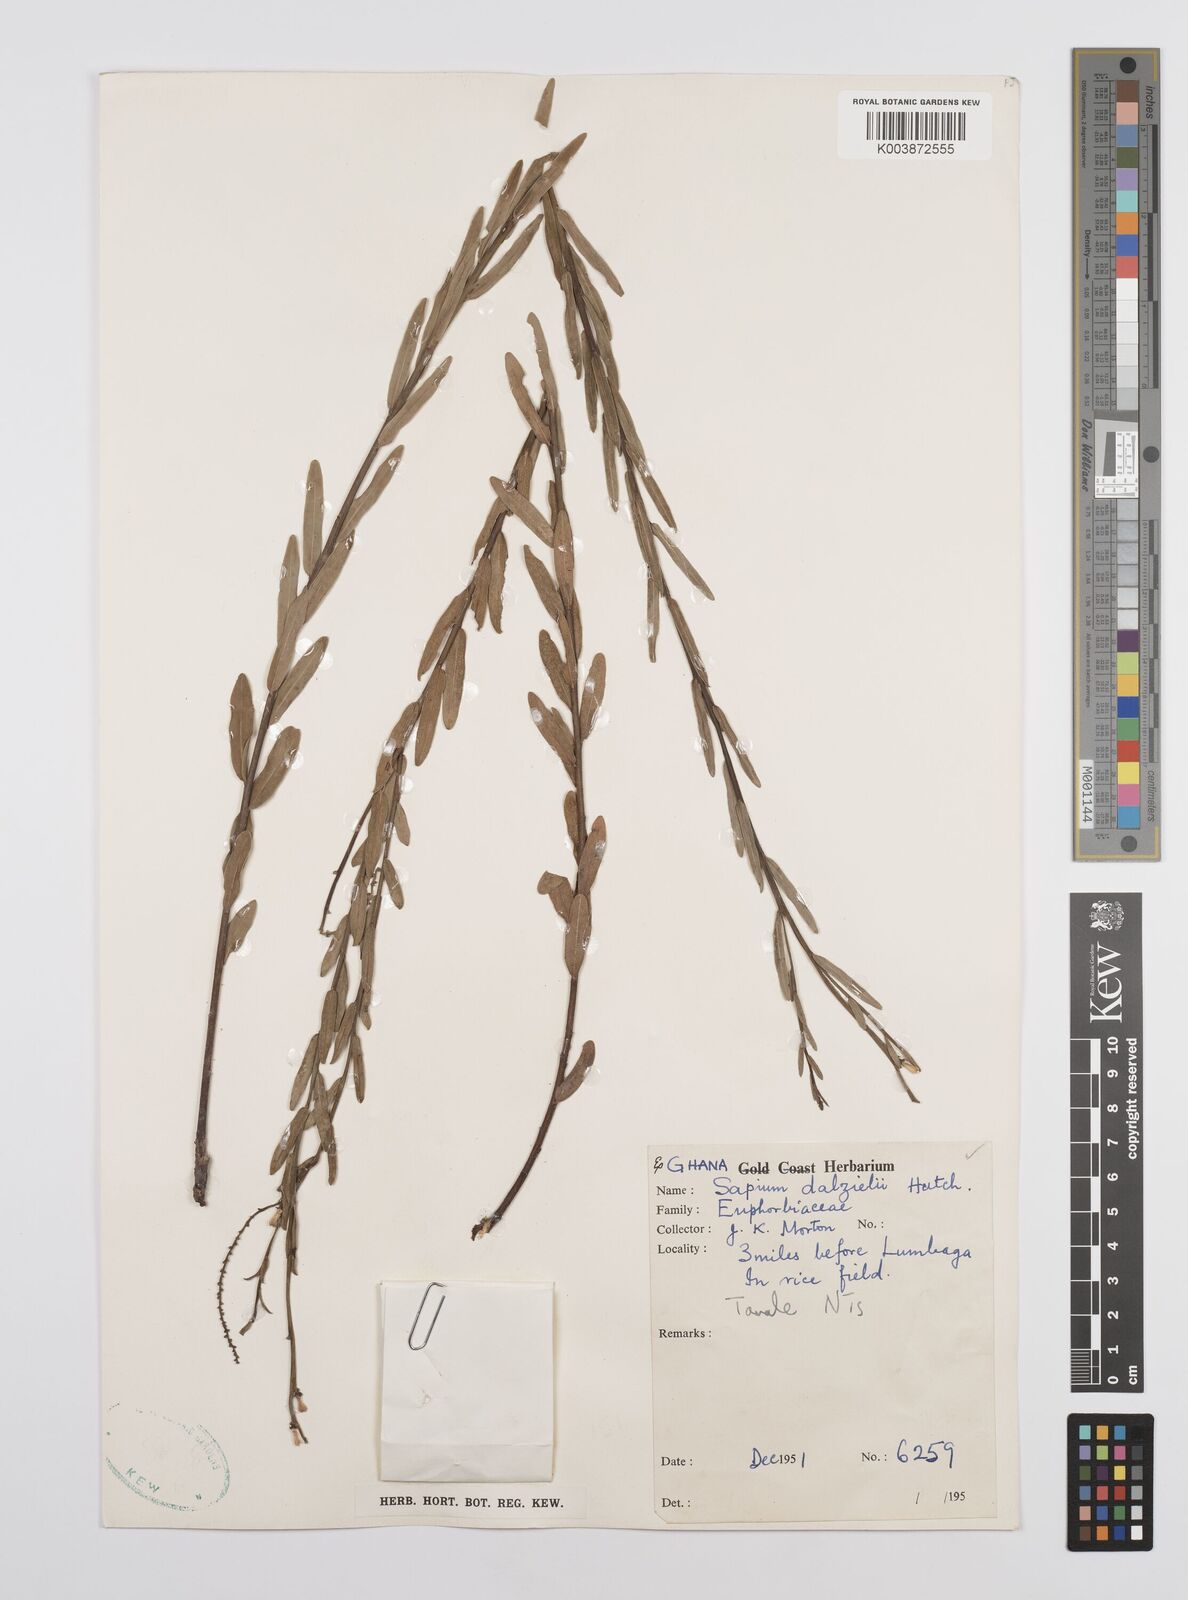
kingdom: Plantae
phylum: Tracheophyta
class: Magnoliopsida
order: Malpighiales
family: Euphorbiaceae
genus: Microstachys
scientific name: Microstachys dalzielii
